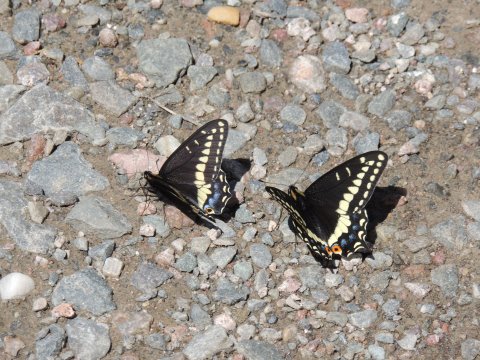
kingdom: Animalia
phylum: Arthropoda
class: Insecta
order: Lepidoptera
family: Papilionidae
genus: Papilio
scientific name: Papilio indra
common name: Indra Swallowtail
